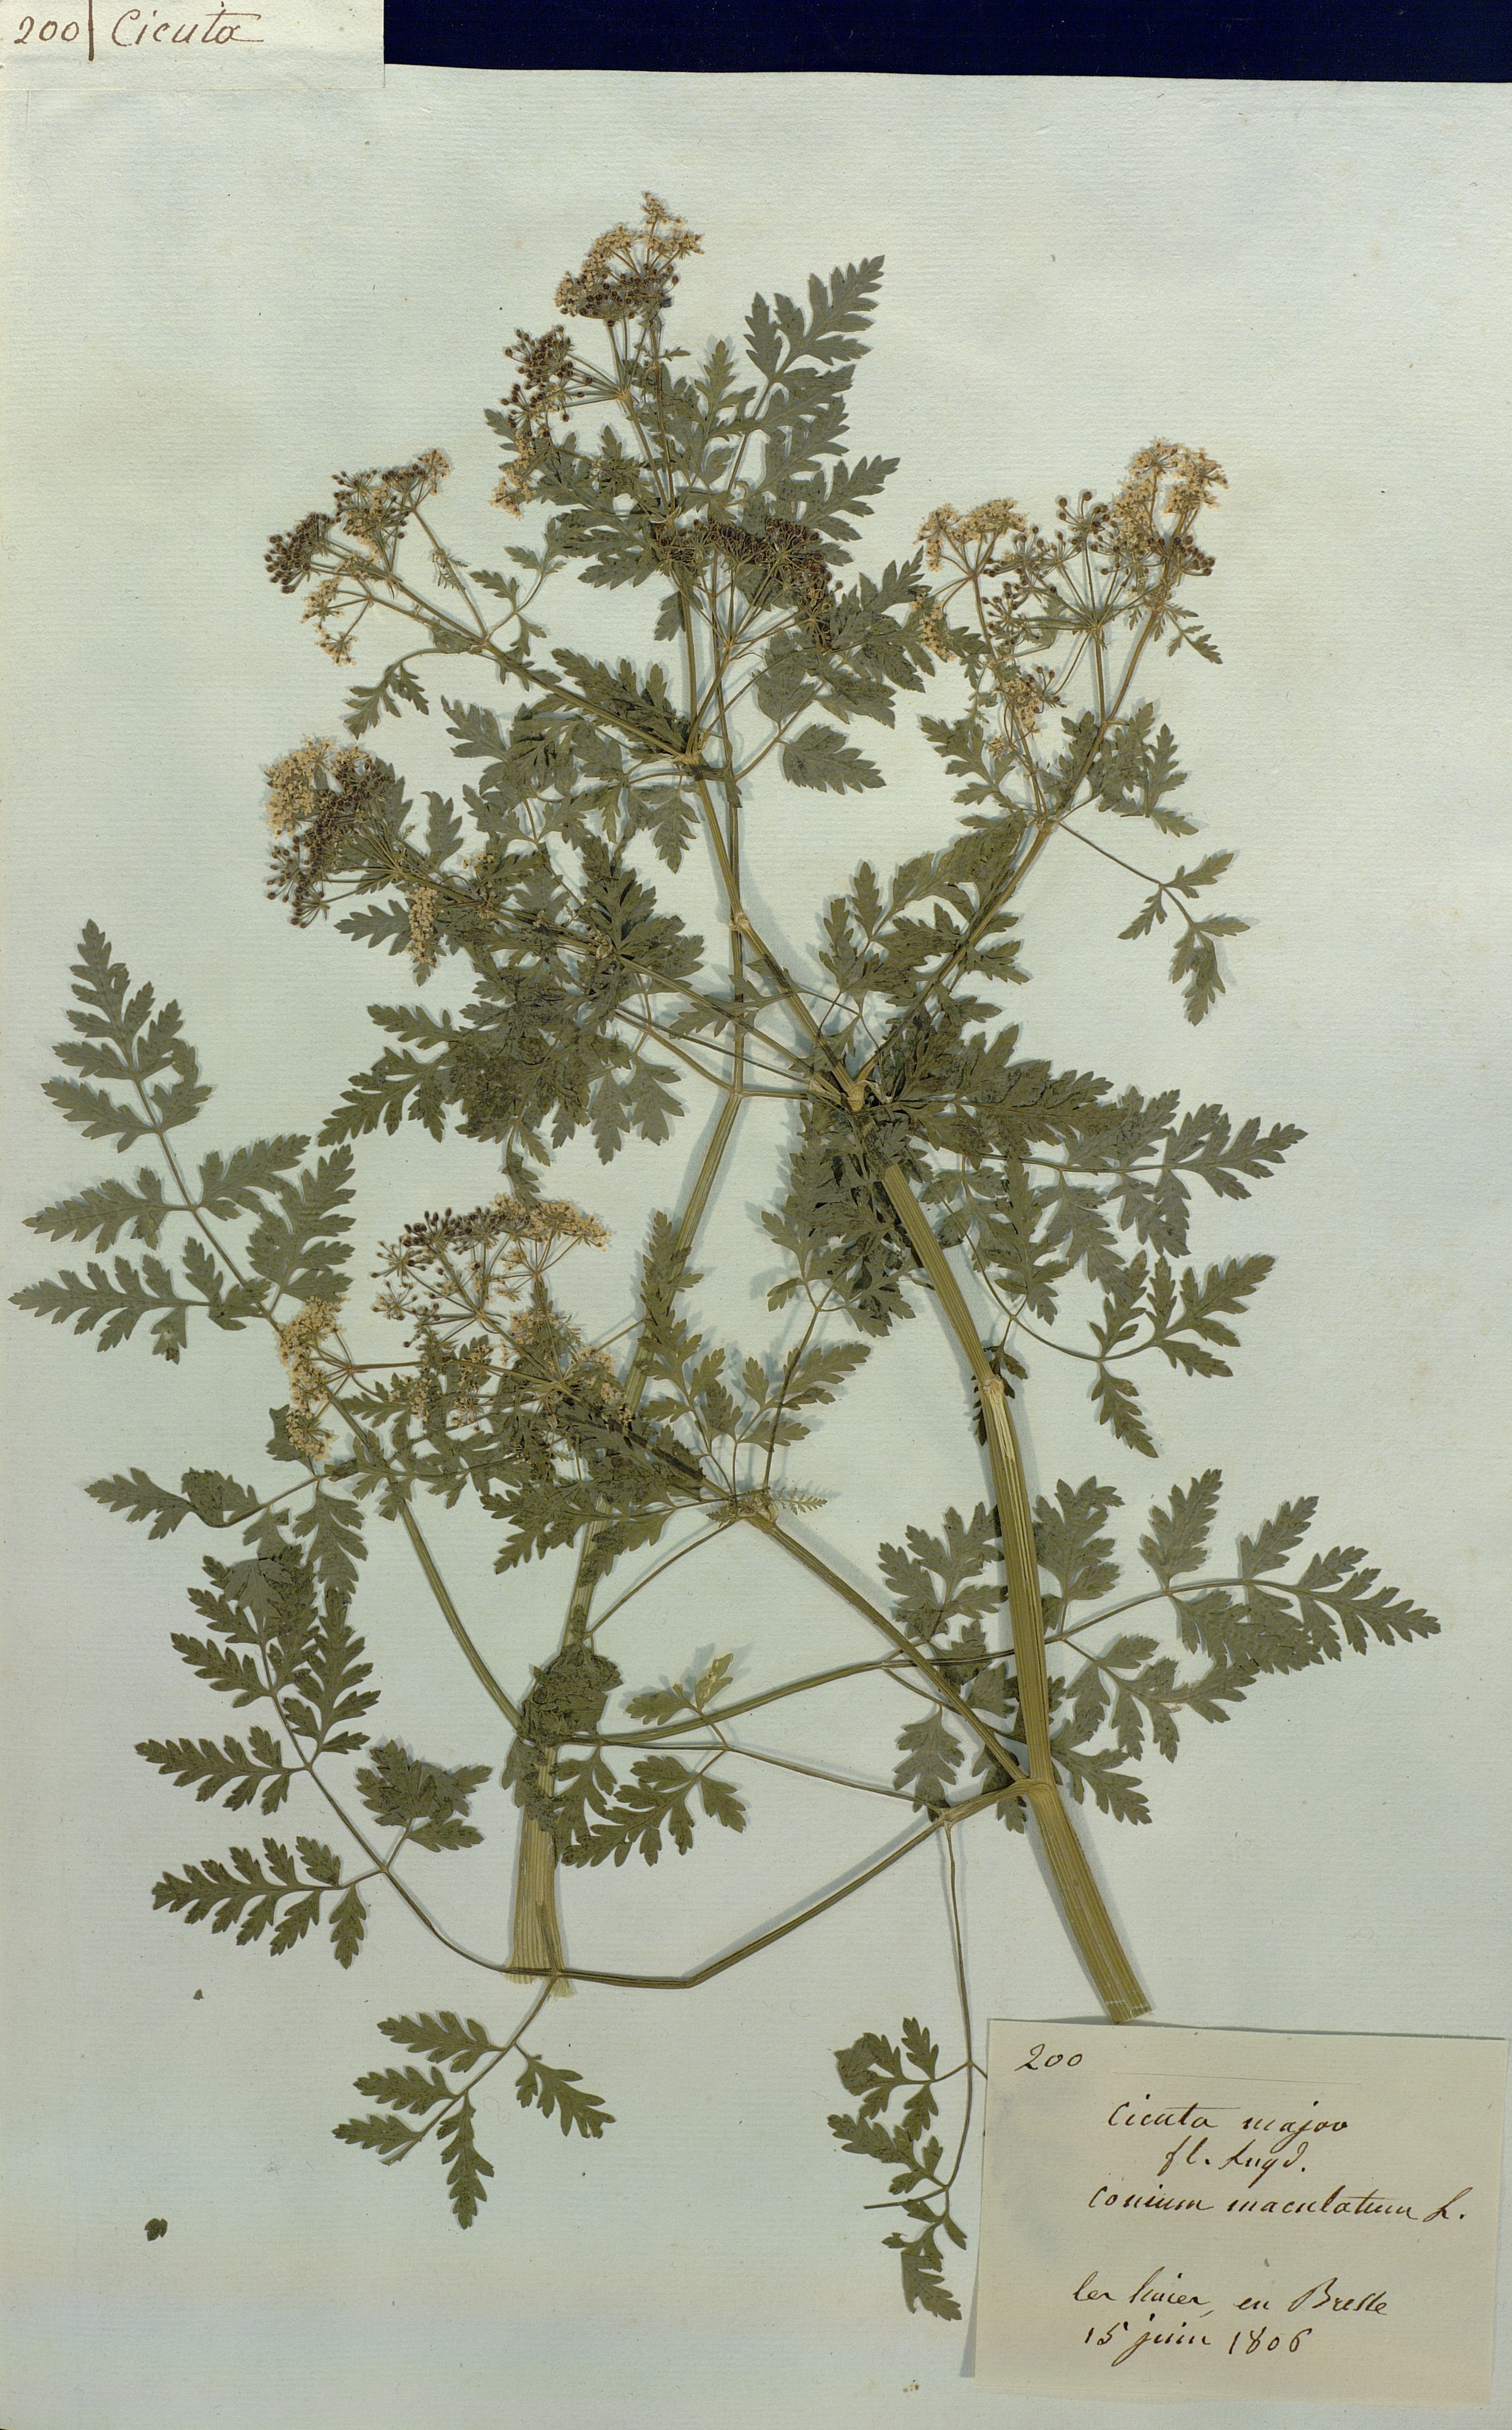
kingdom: Plantae
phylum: Tracheophyta
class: Magnoliopsida
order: Apiales
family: Apiaceae
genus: Cicuta
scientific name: Cicuta major
